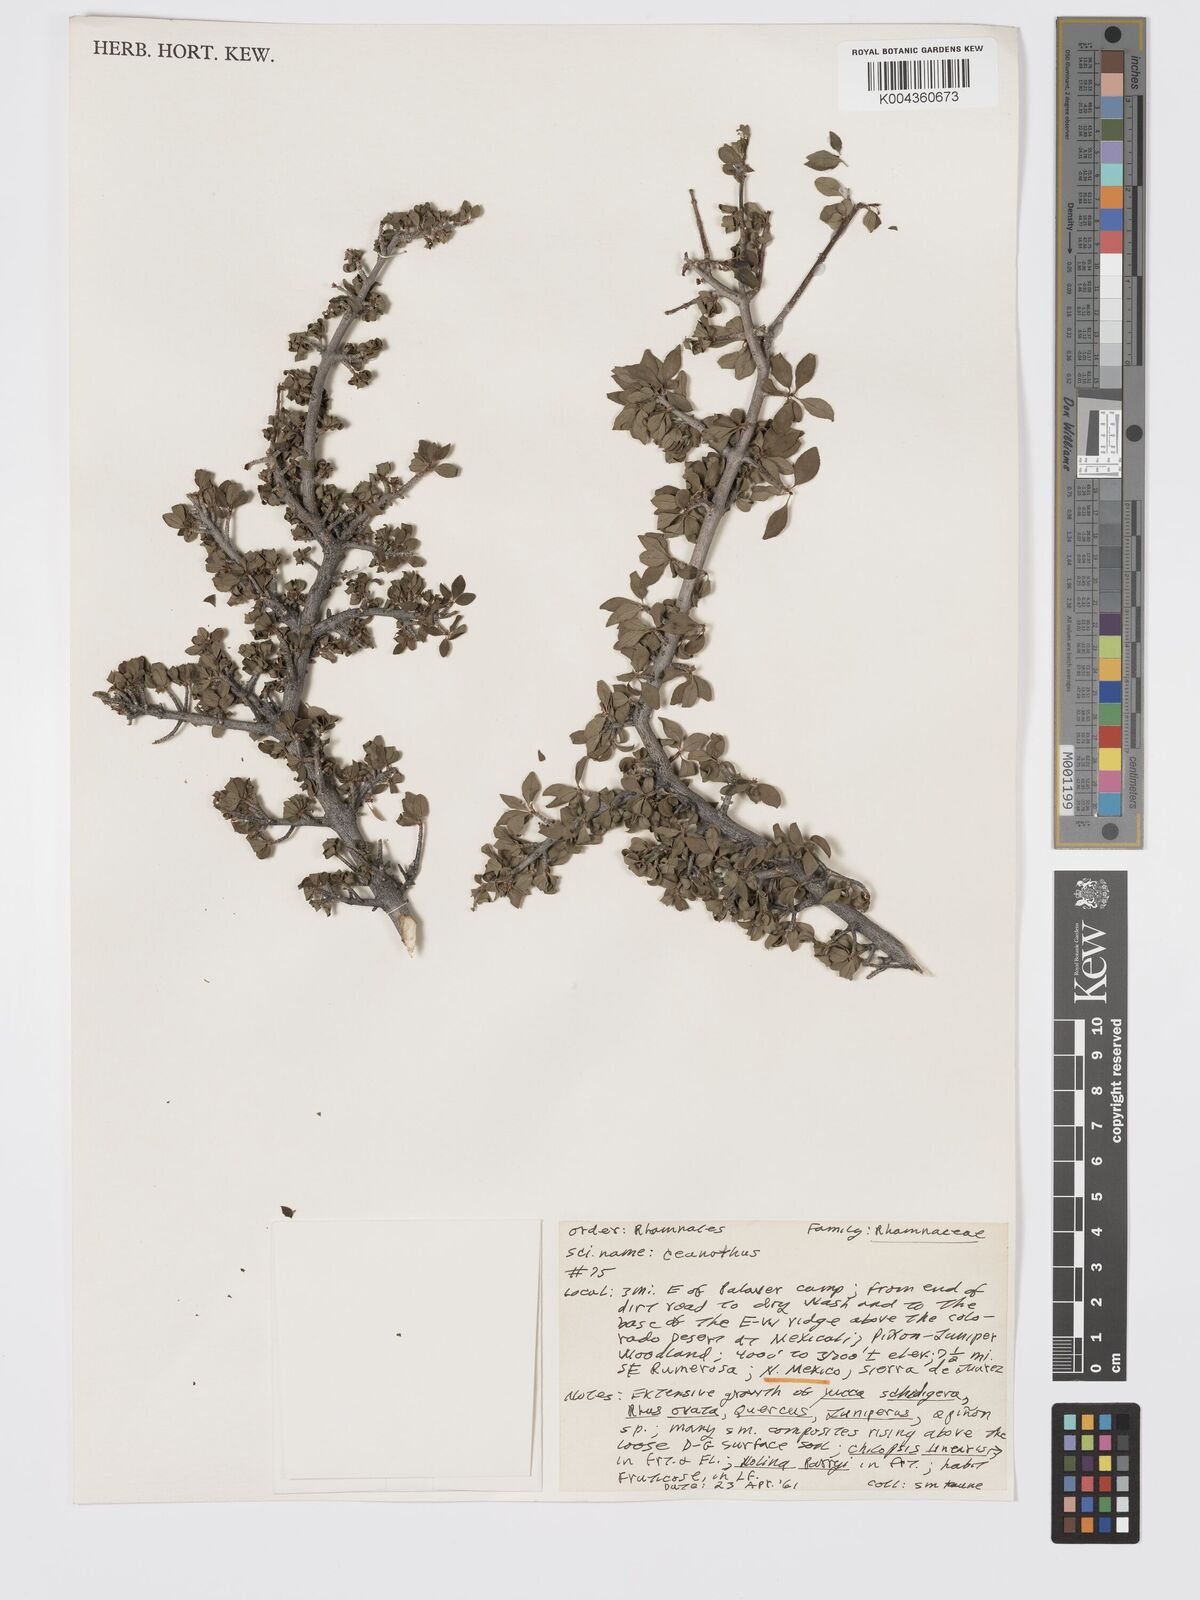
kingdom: Plantae
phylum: Tracheophyta
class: Magnoliopsida
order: Rosales
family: Rhamnaceae
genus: Ceanothus
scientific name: Ceanothus
